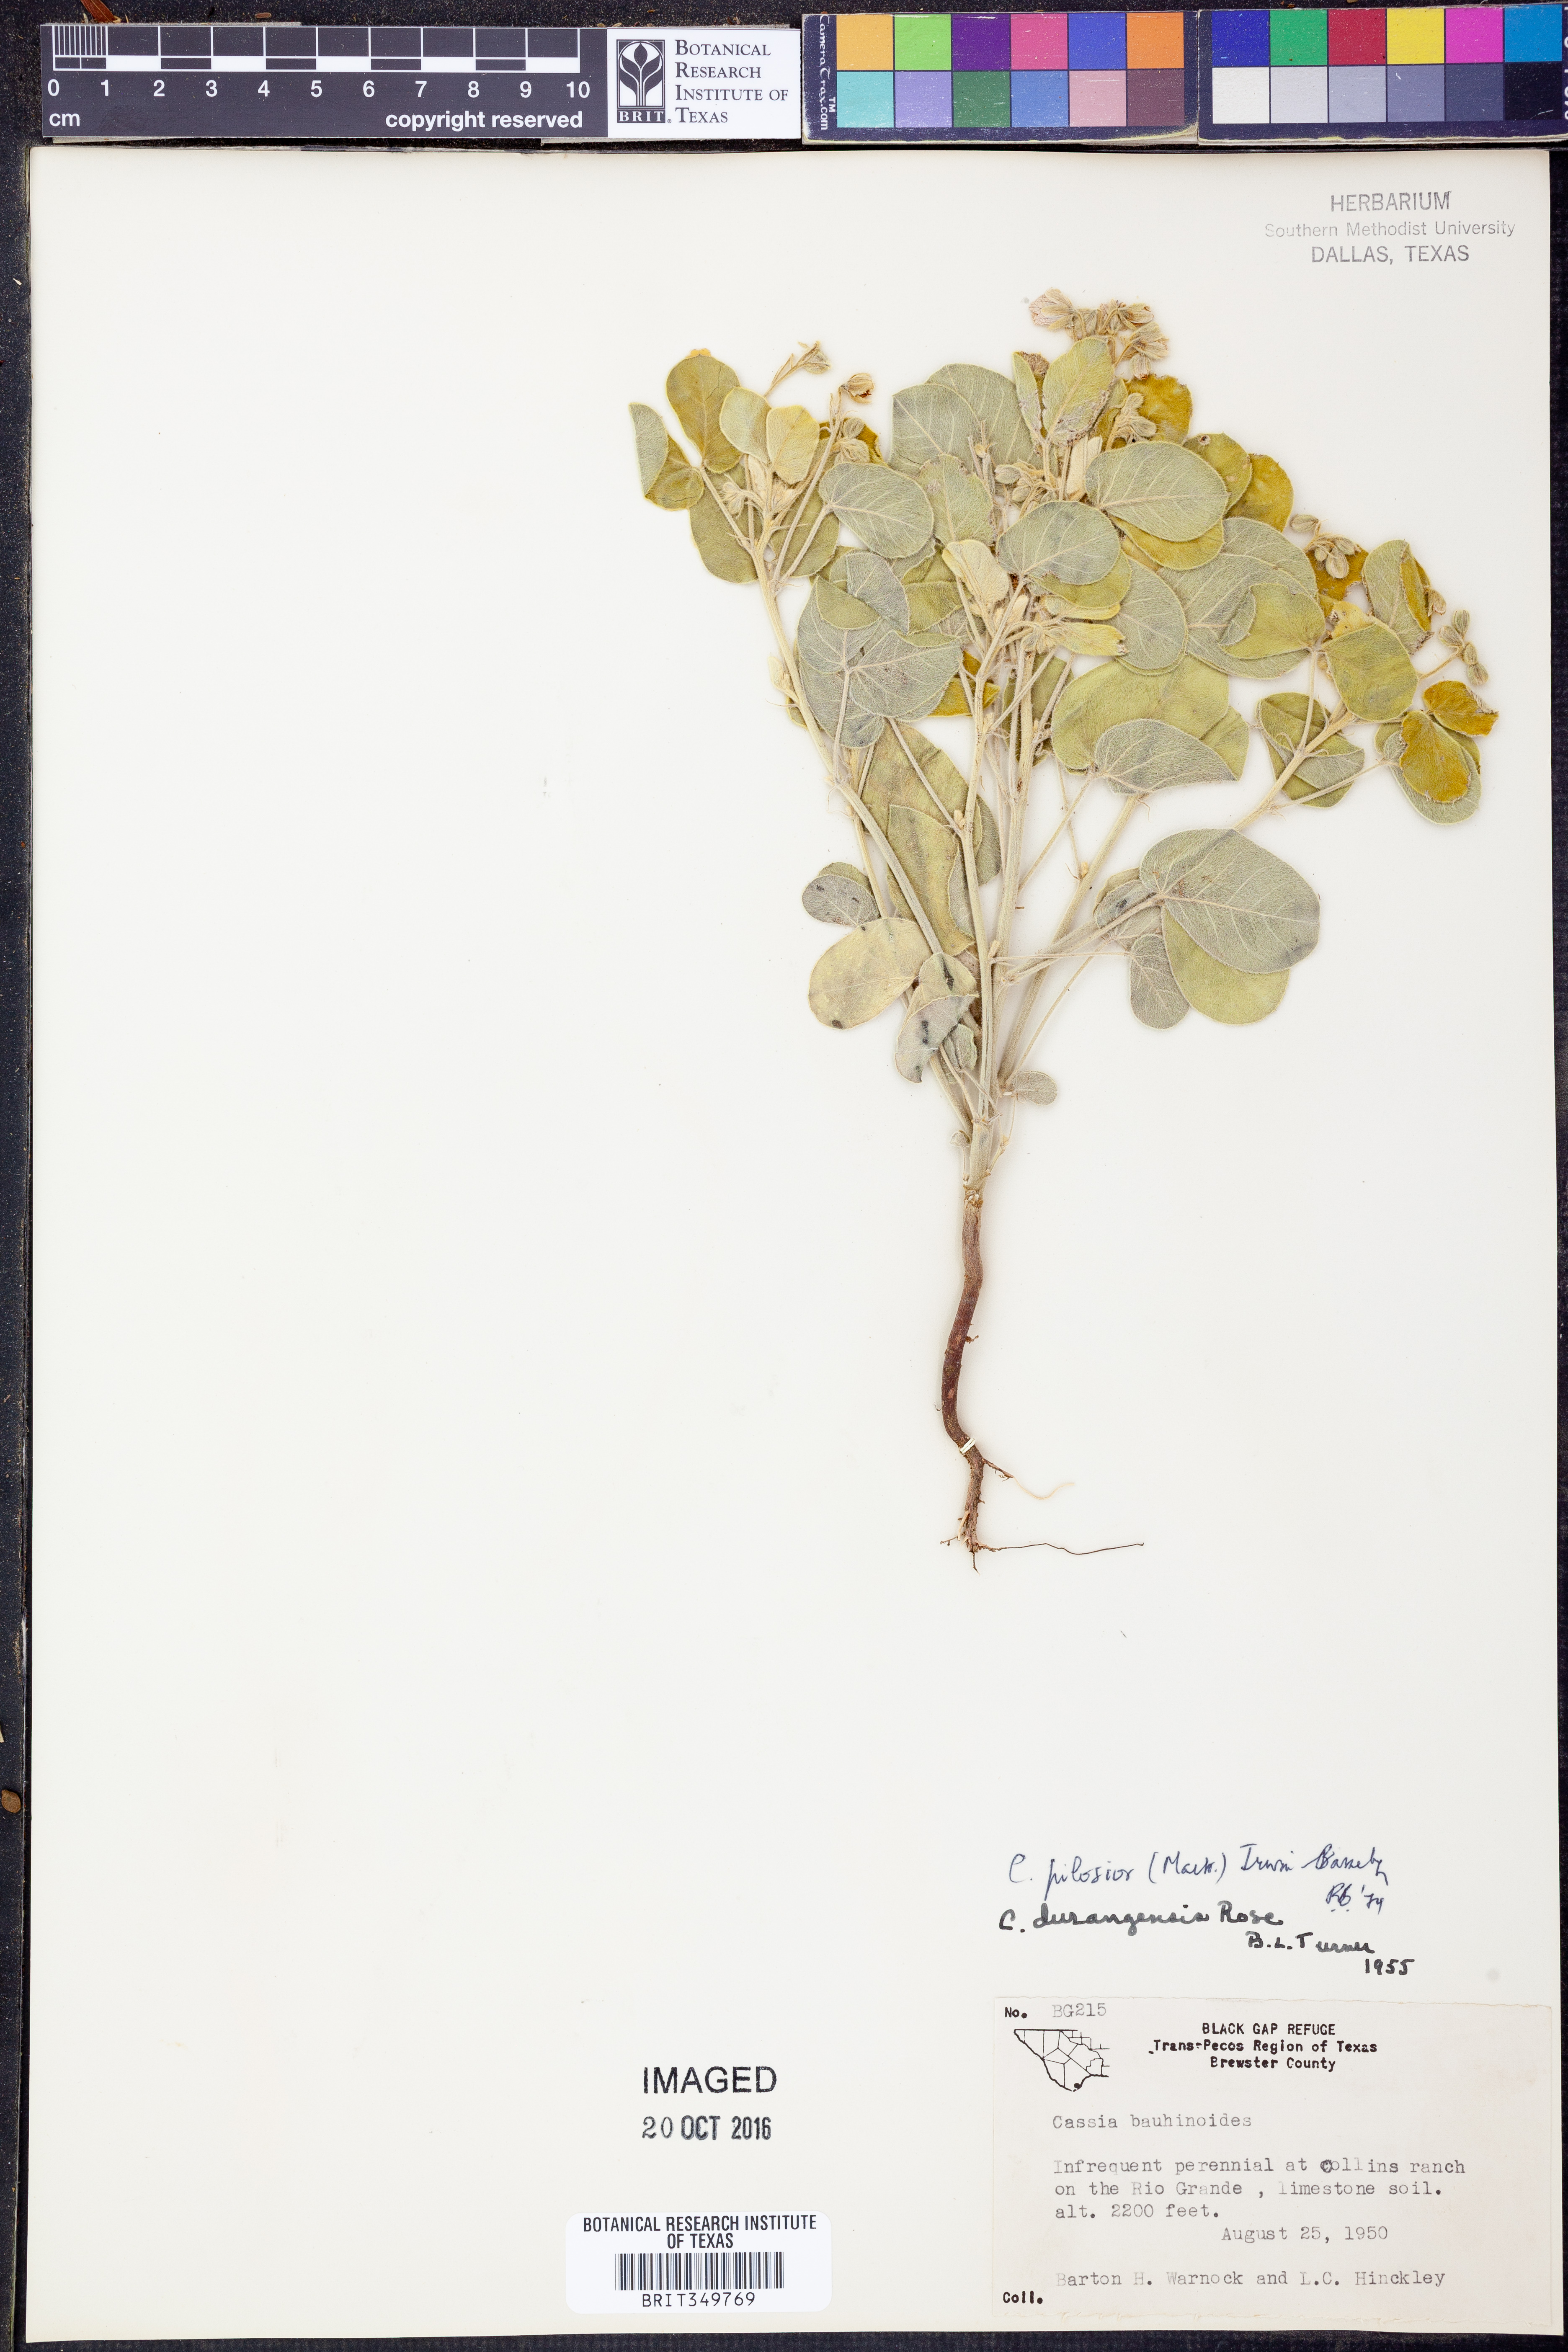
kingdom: Plantae
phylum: Tracheophyta
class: Magnoliopsida
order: Fabales
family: Fabaceae
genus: Senna
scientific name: Senna pilosior
